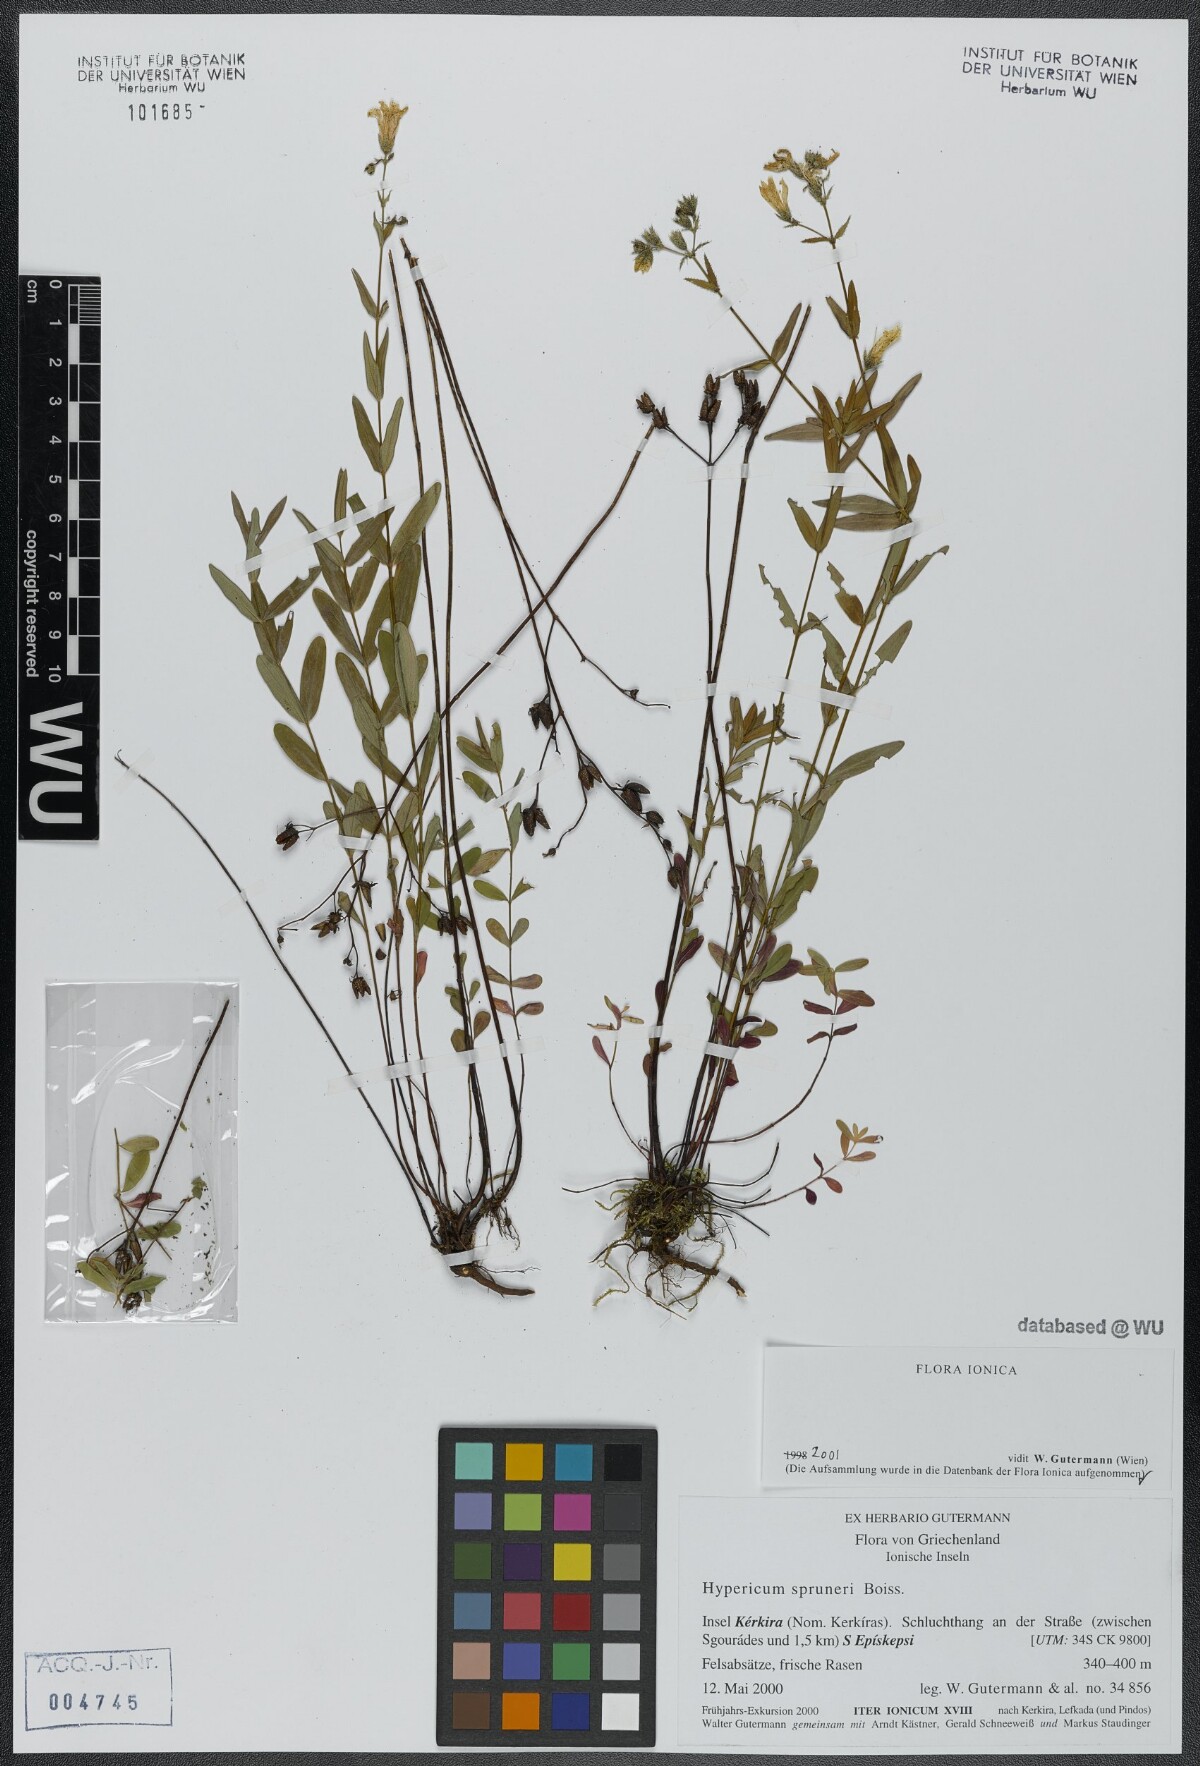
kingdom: Plantae
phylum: Tracheophyta
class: Magnoliopsida
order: Malpighiales
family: Hypericaceae
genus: Hypericum
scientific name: Hypericum spruneri
